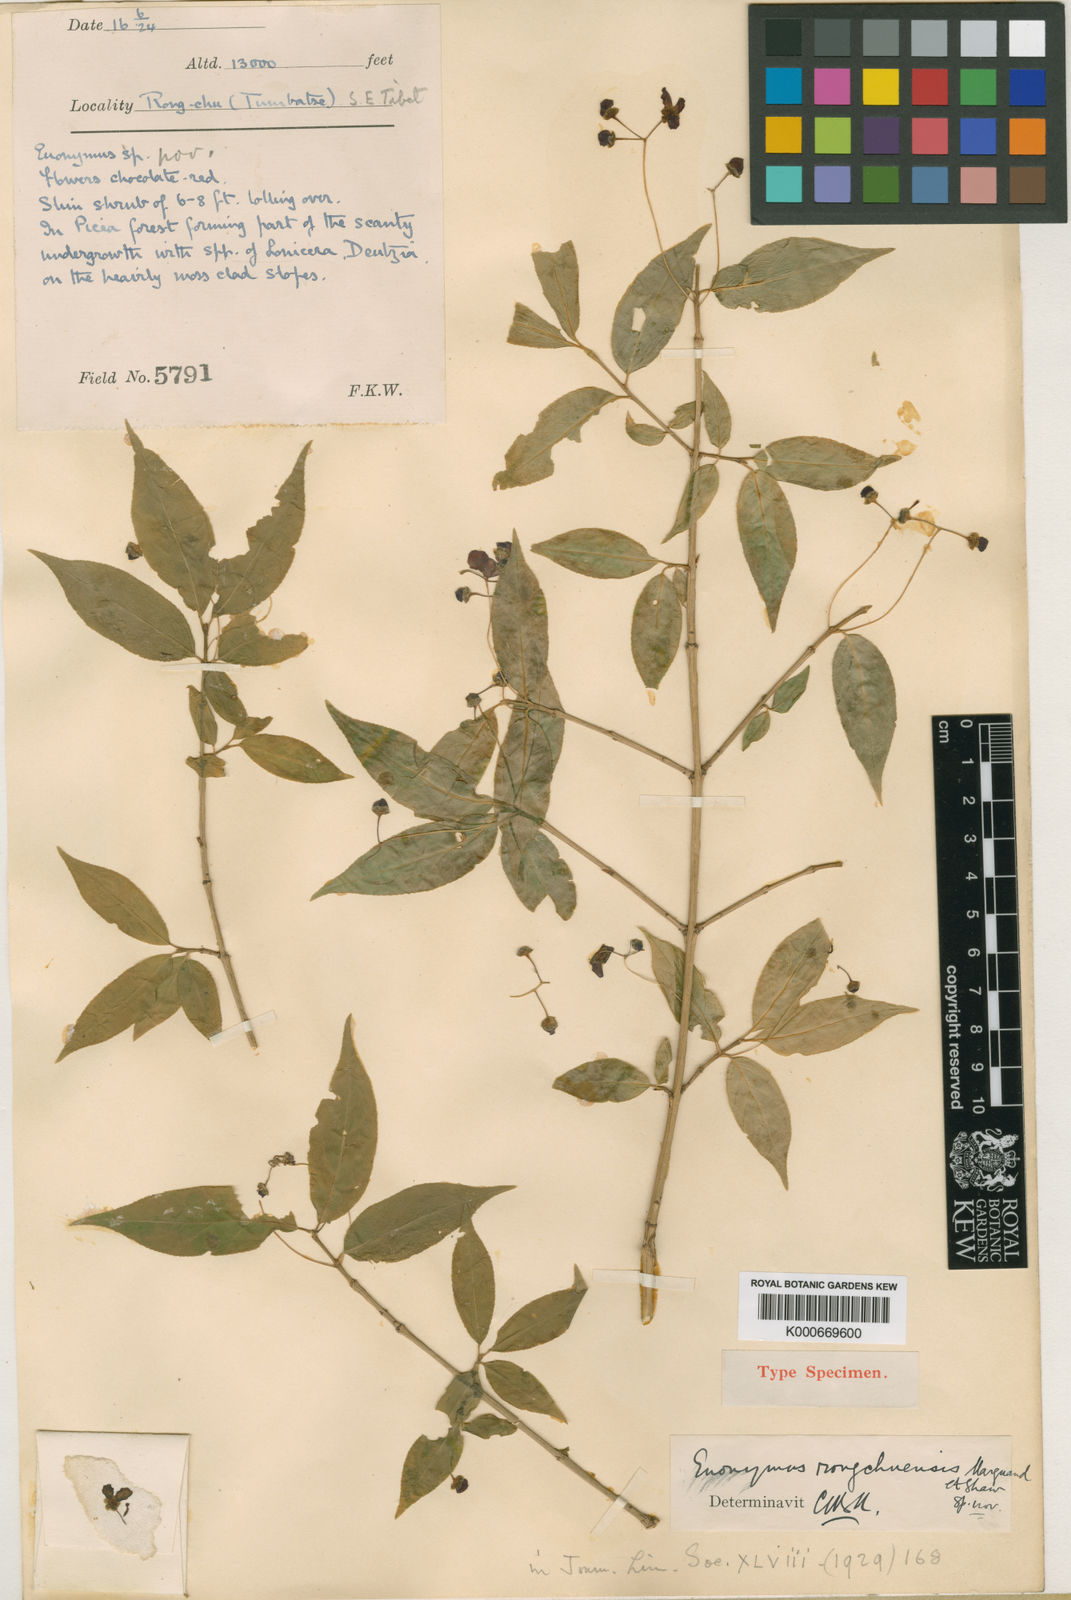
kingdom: Plantae
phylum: Tracheophyta
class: Magnoliopsida
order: Celastrales
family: Celastraceae
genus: Euonymus
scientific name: Euonymus clivicolus
